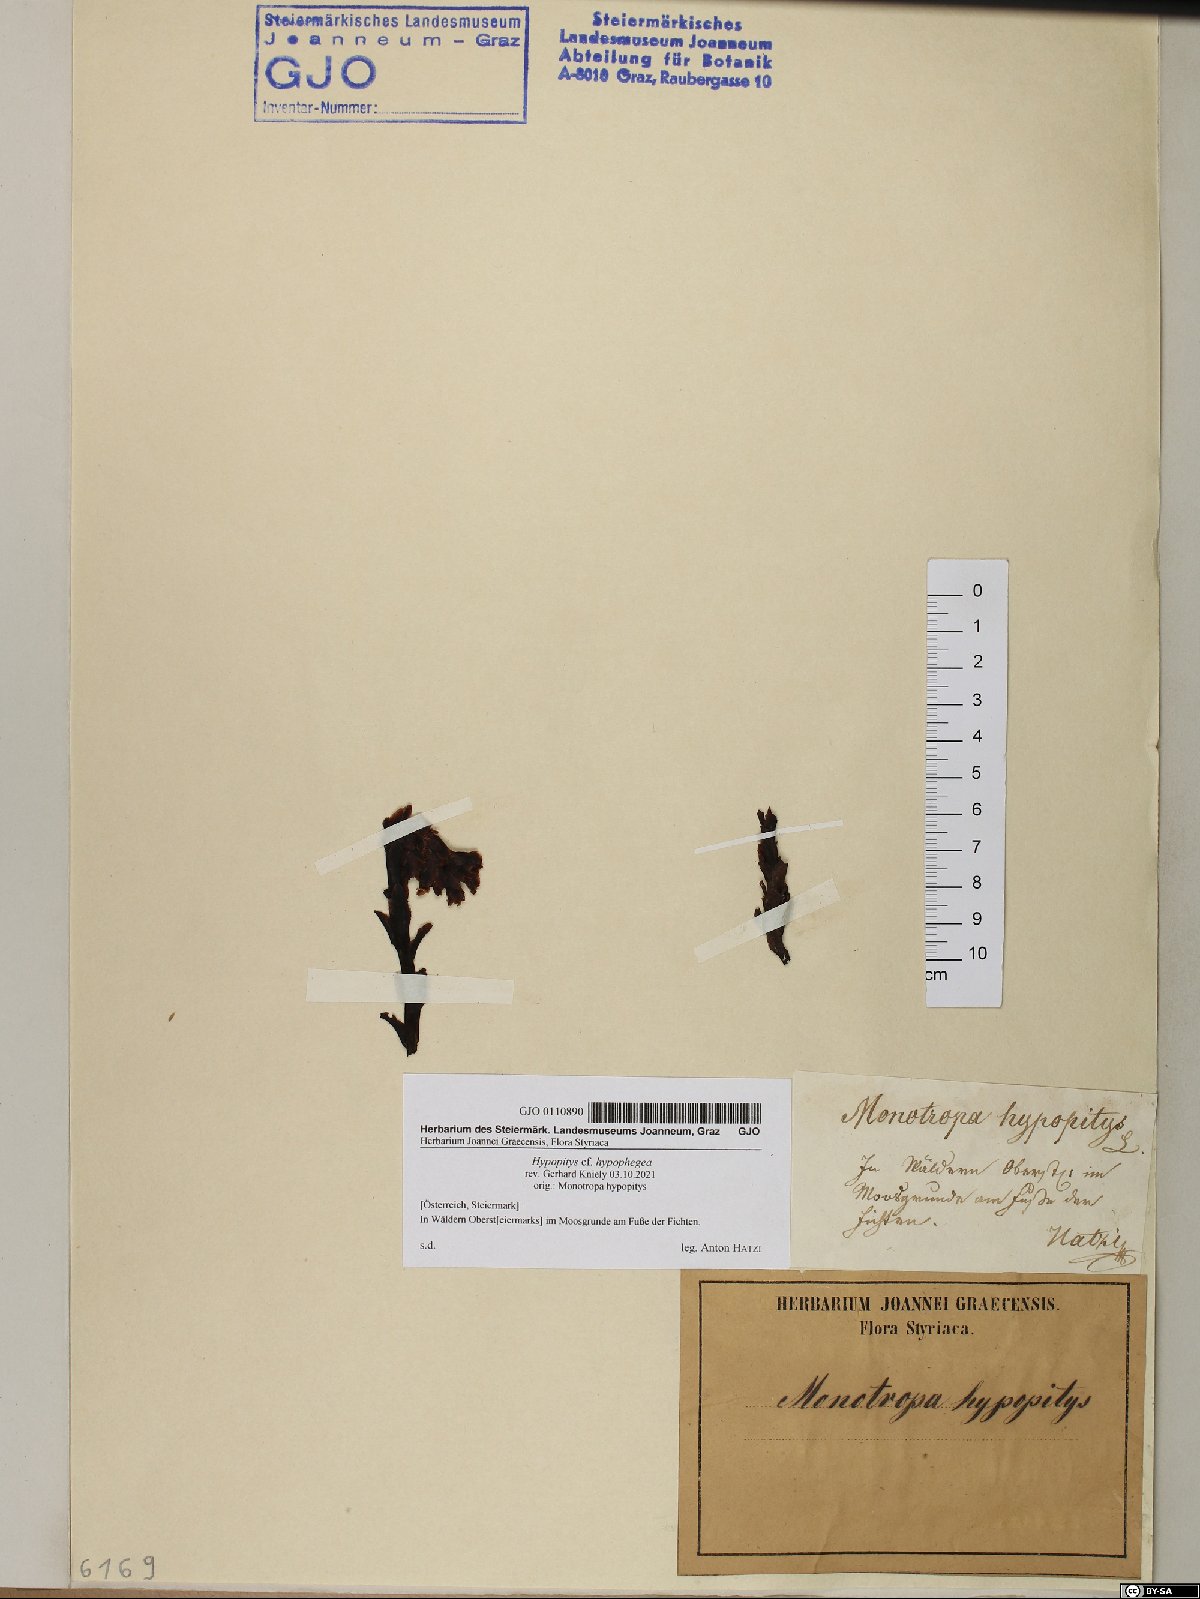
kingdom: Plantae
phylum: Tracheophyta
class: Magnoliopsida
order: Ericales
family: Ericaceae
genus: Hypopitys
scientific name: Hypopitys hypophegea
